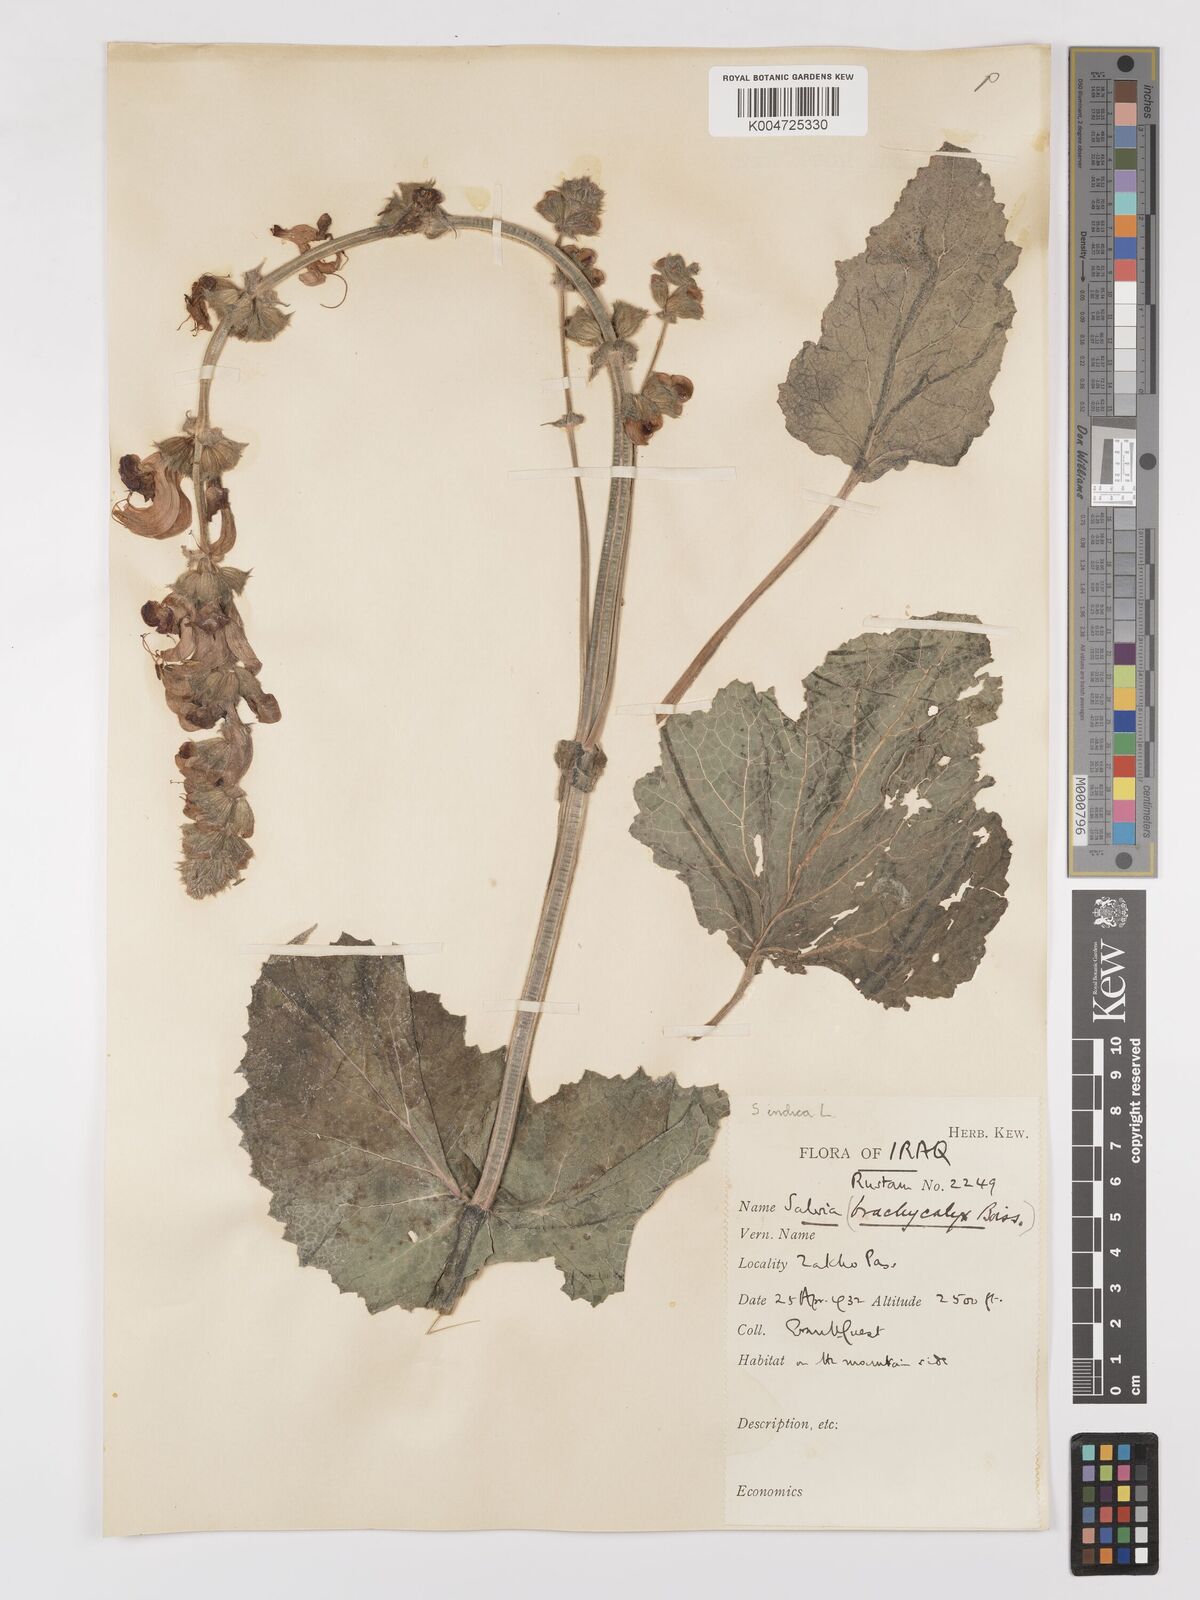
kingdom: Plantae
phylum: Tracheophyta
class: Magnoliopsida
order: Lamiales
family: Lamiaceae
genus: Salvia
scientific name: Salvia indica
